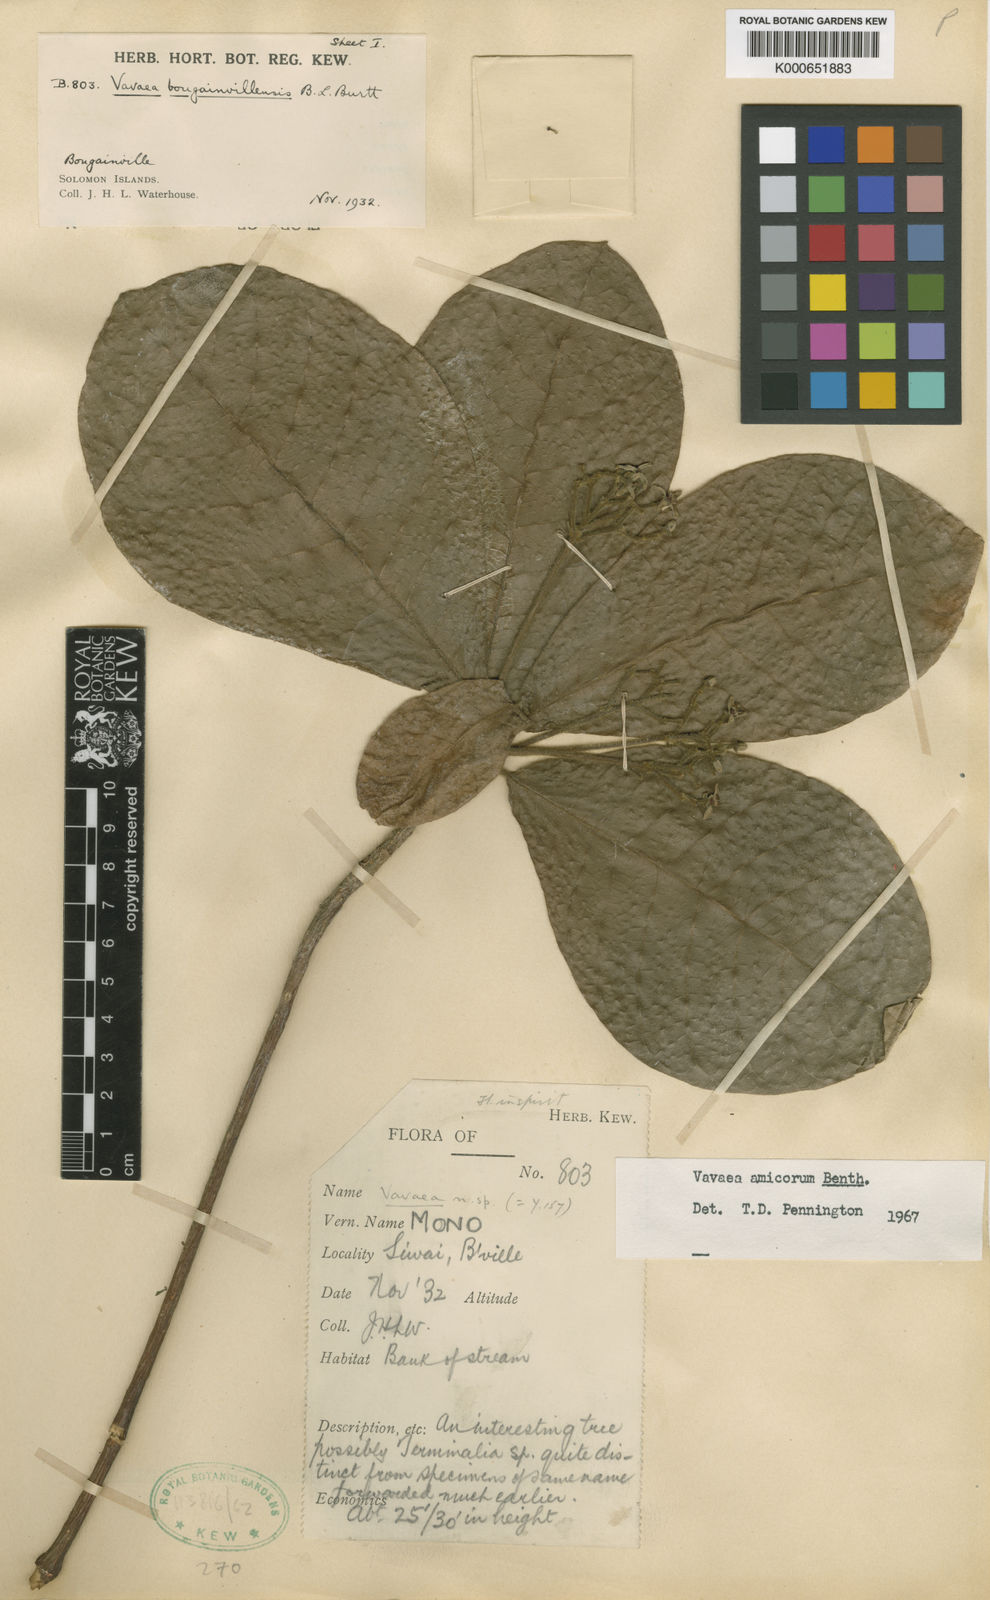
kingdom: Plantae
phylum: Tracheophyta
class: Magnoliopsida
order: Sapindales
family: Meliaceae
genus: Vavaea
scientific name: Vavaea amicorum
